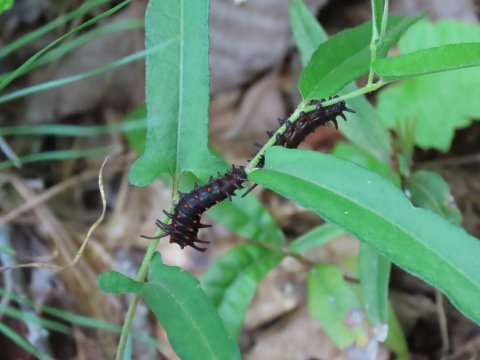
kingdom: Animalia
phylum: Arthropoda
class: Insecta
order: Lepidoptera
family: Papilionidae
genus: Battus
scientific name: Battus philenor
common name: Pipevine Swallowtail
